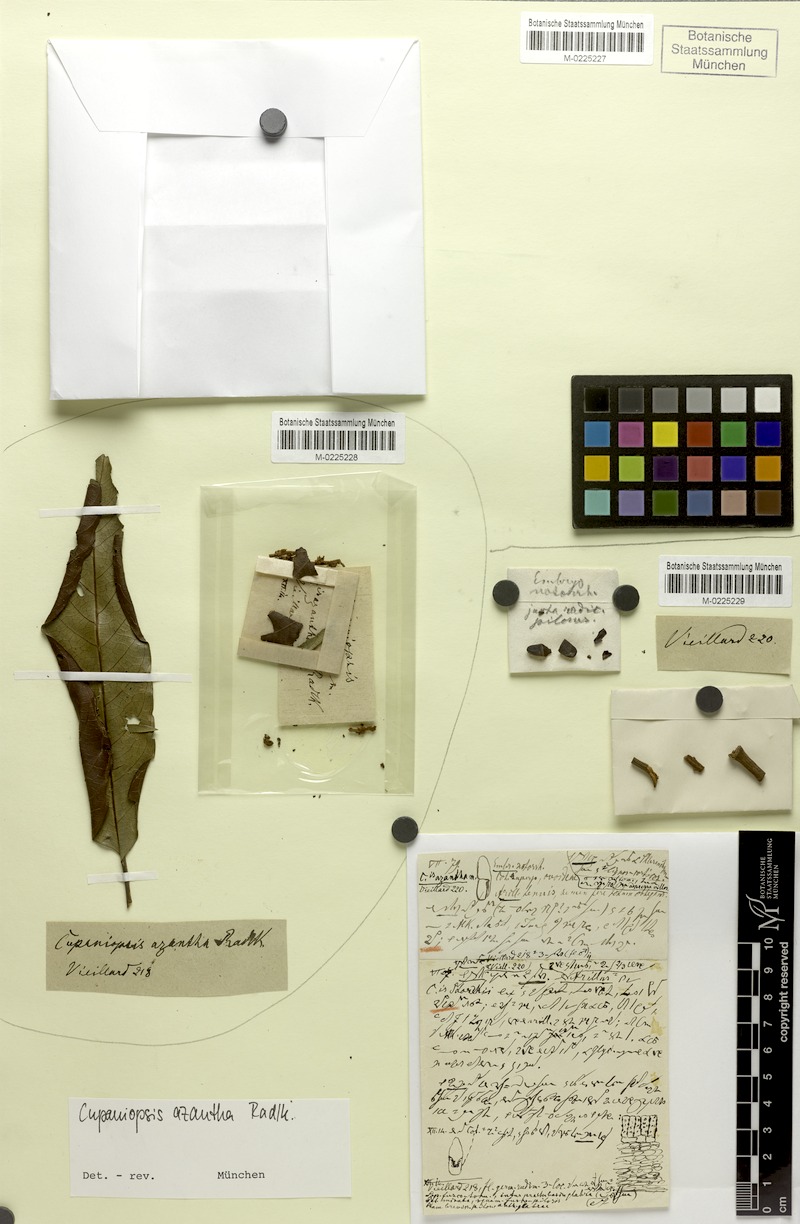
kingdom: Plantae
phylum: Tracheophyta
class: Magnoliopsida
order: Sapindales
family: Sapindaceae
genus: Cupaniopsis
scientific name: Cupaniopsis azantha
